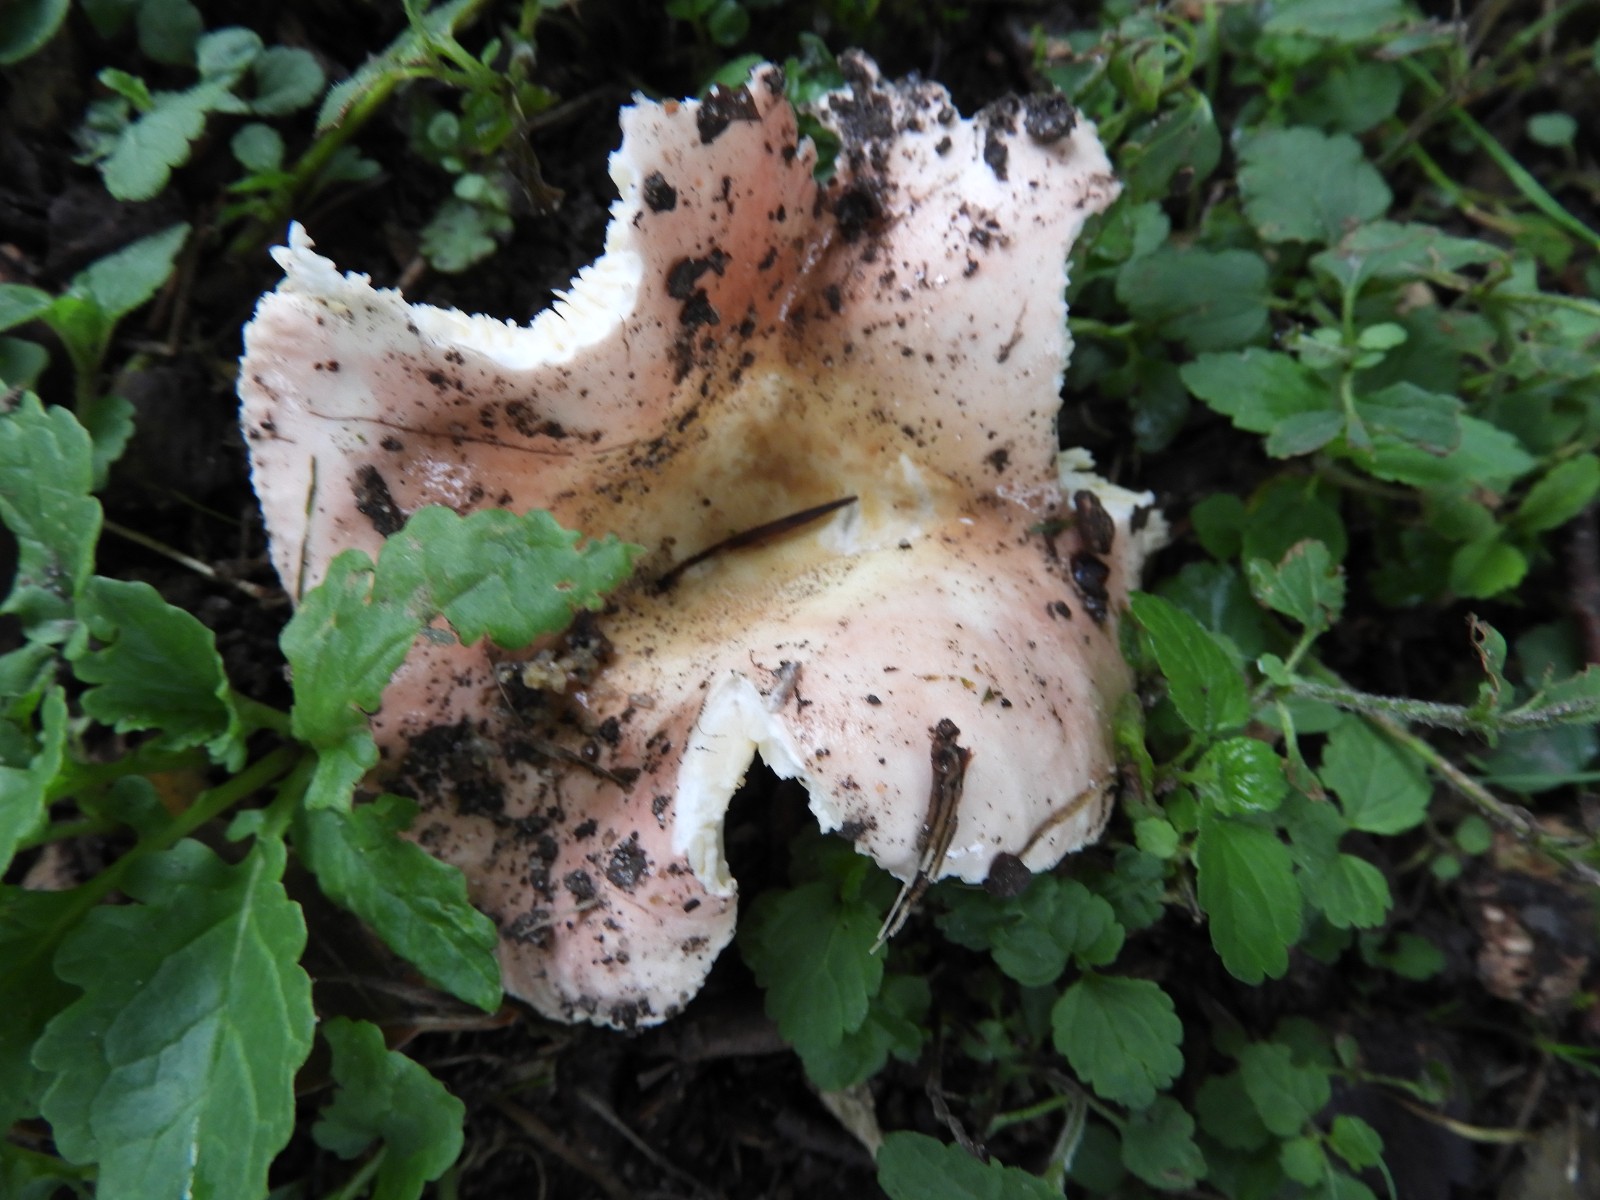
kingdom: Fungi
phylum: Basidiomycota
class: Agaricomycetes
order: Russulales
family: Russulaceae
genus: Russula
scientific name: Russula
